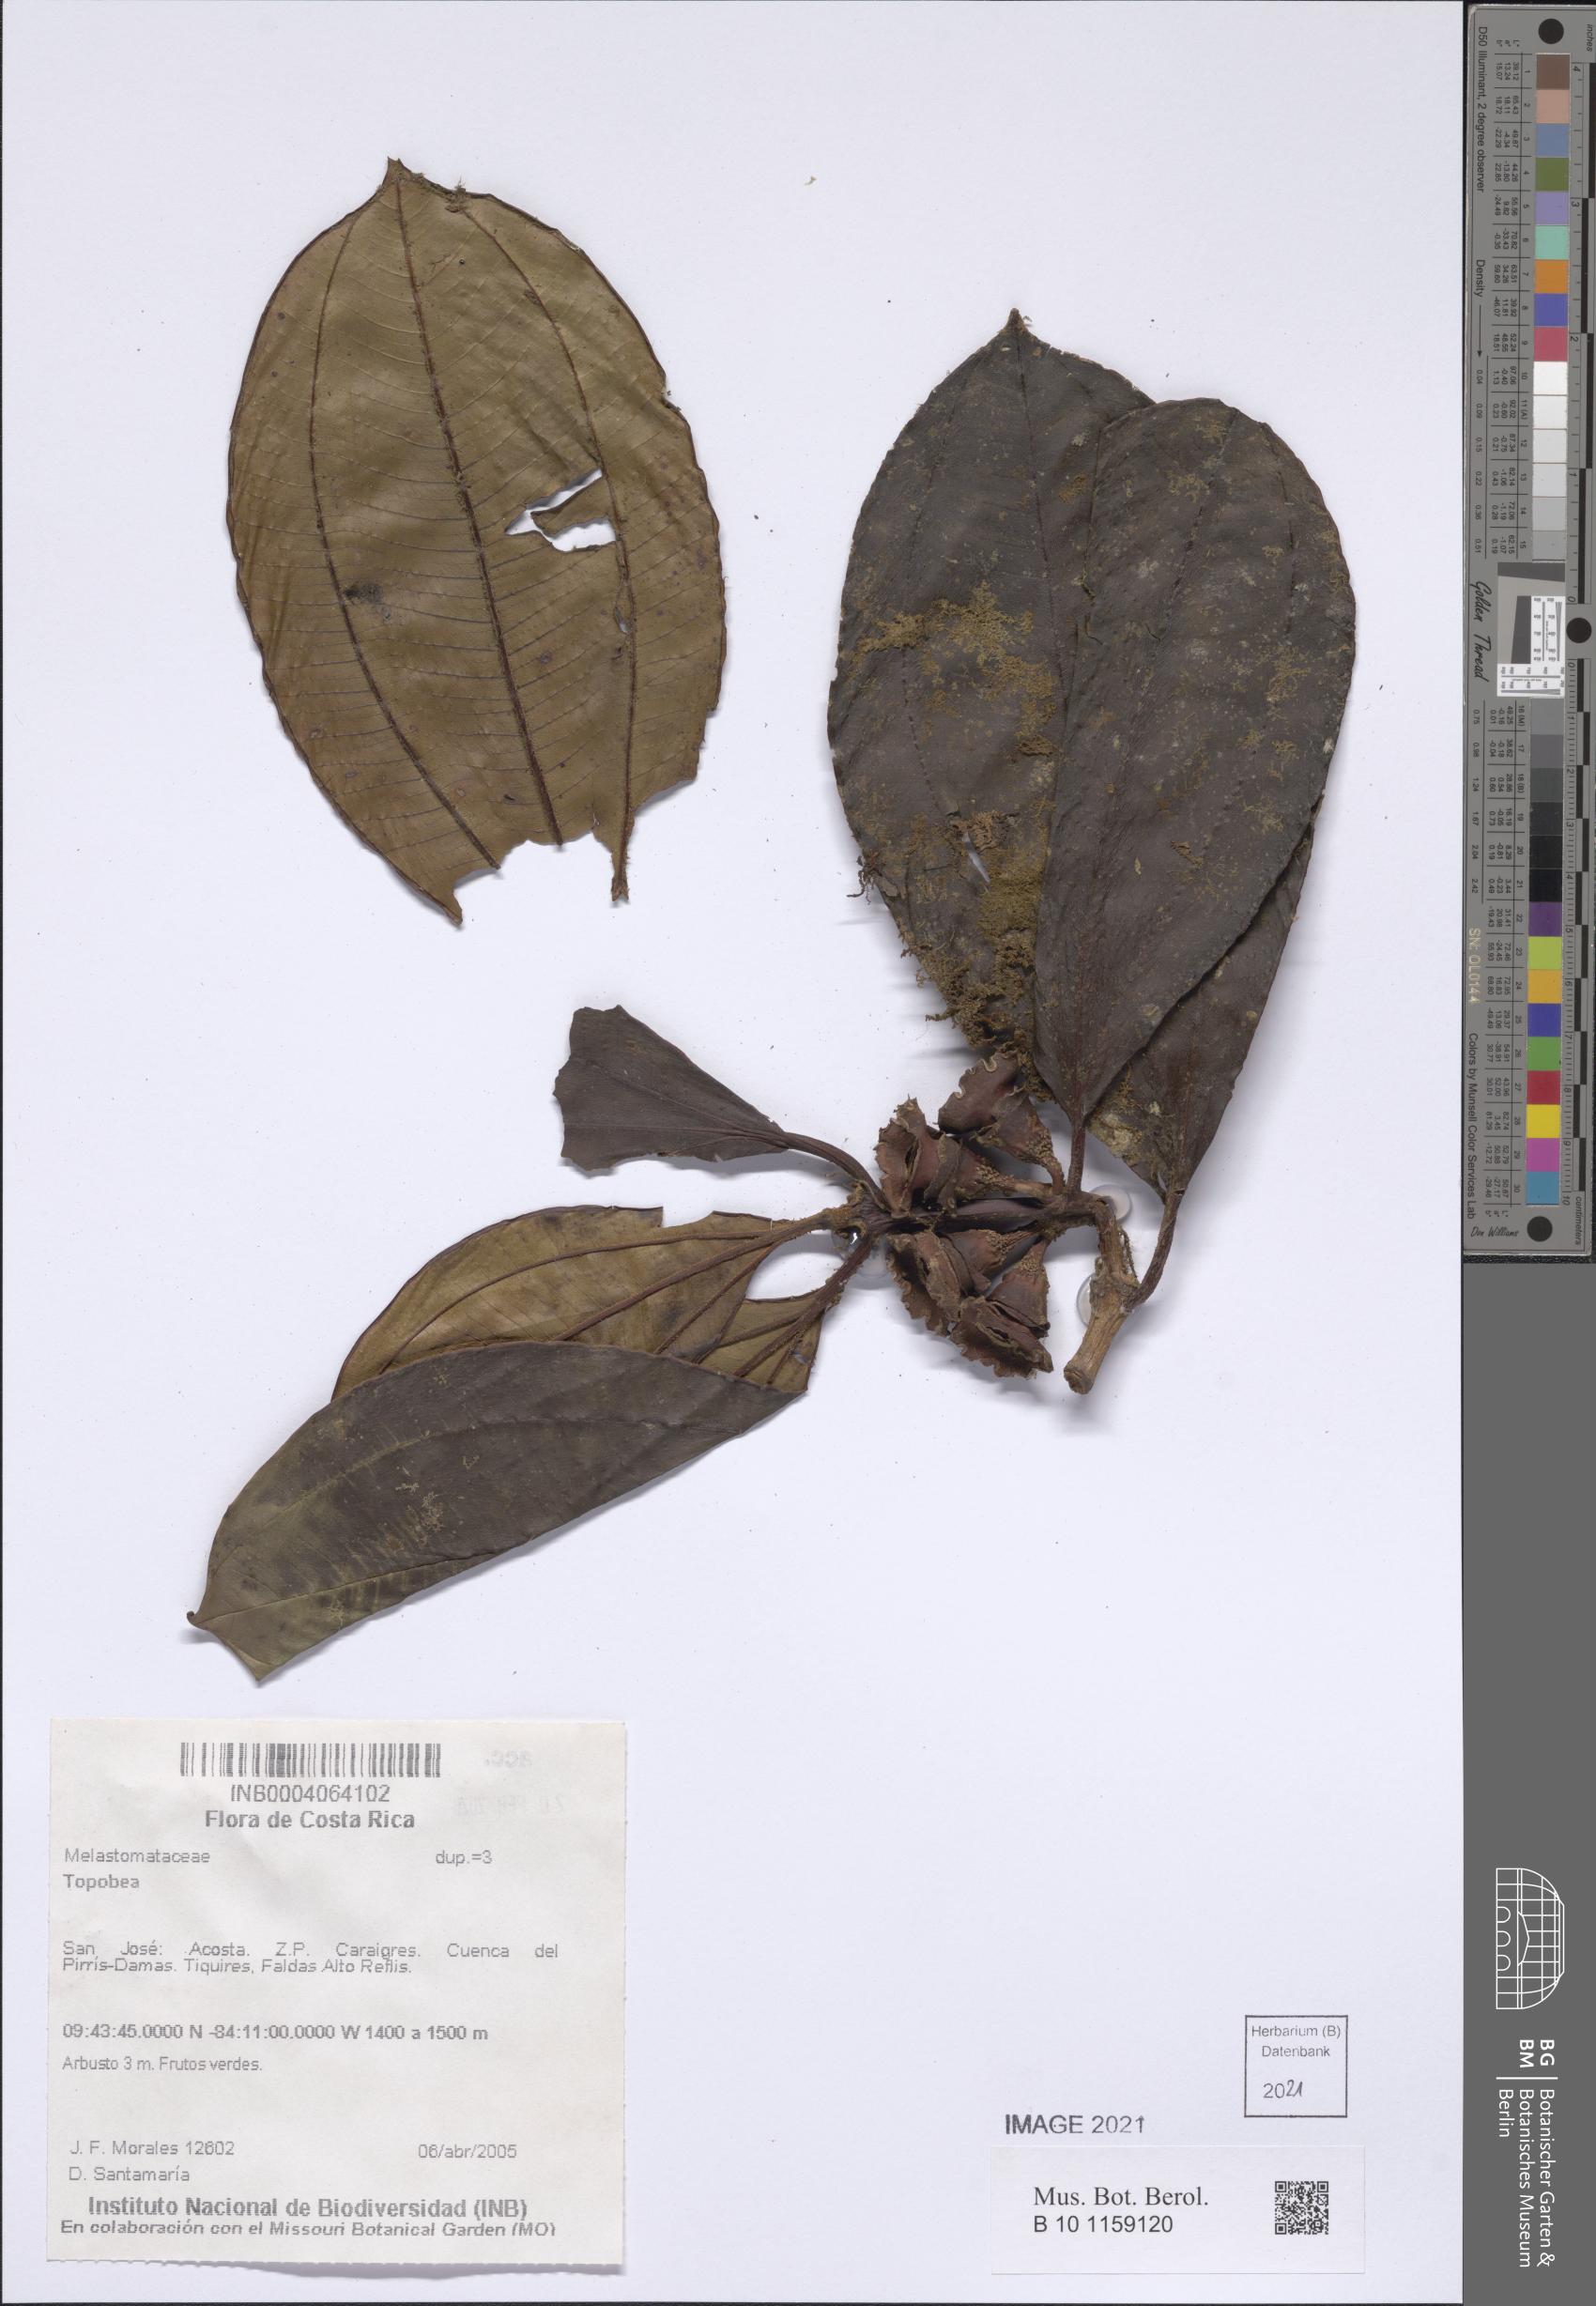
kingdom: Plantae
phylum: Tracheophyta
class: Magnoliopsida
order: Myrtales
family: Melastomataceae
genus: Blakea
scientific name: Blakea
